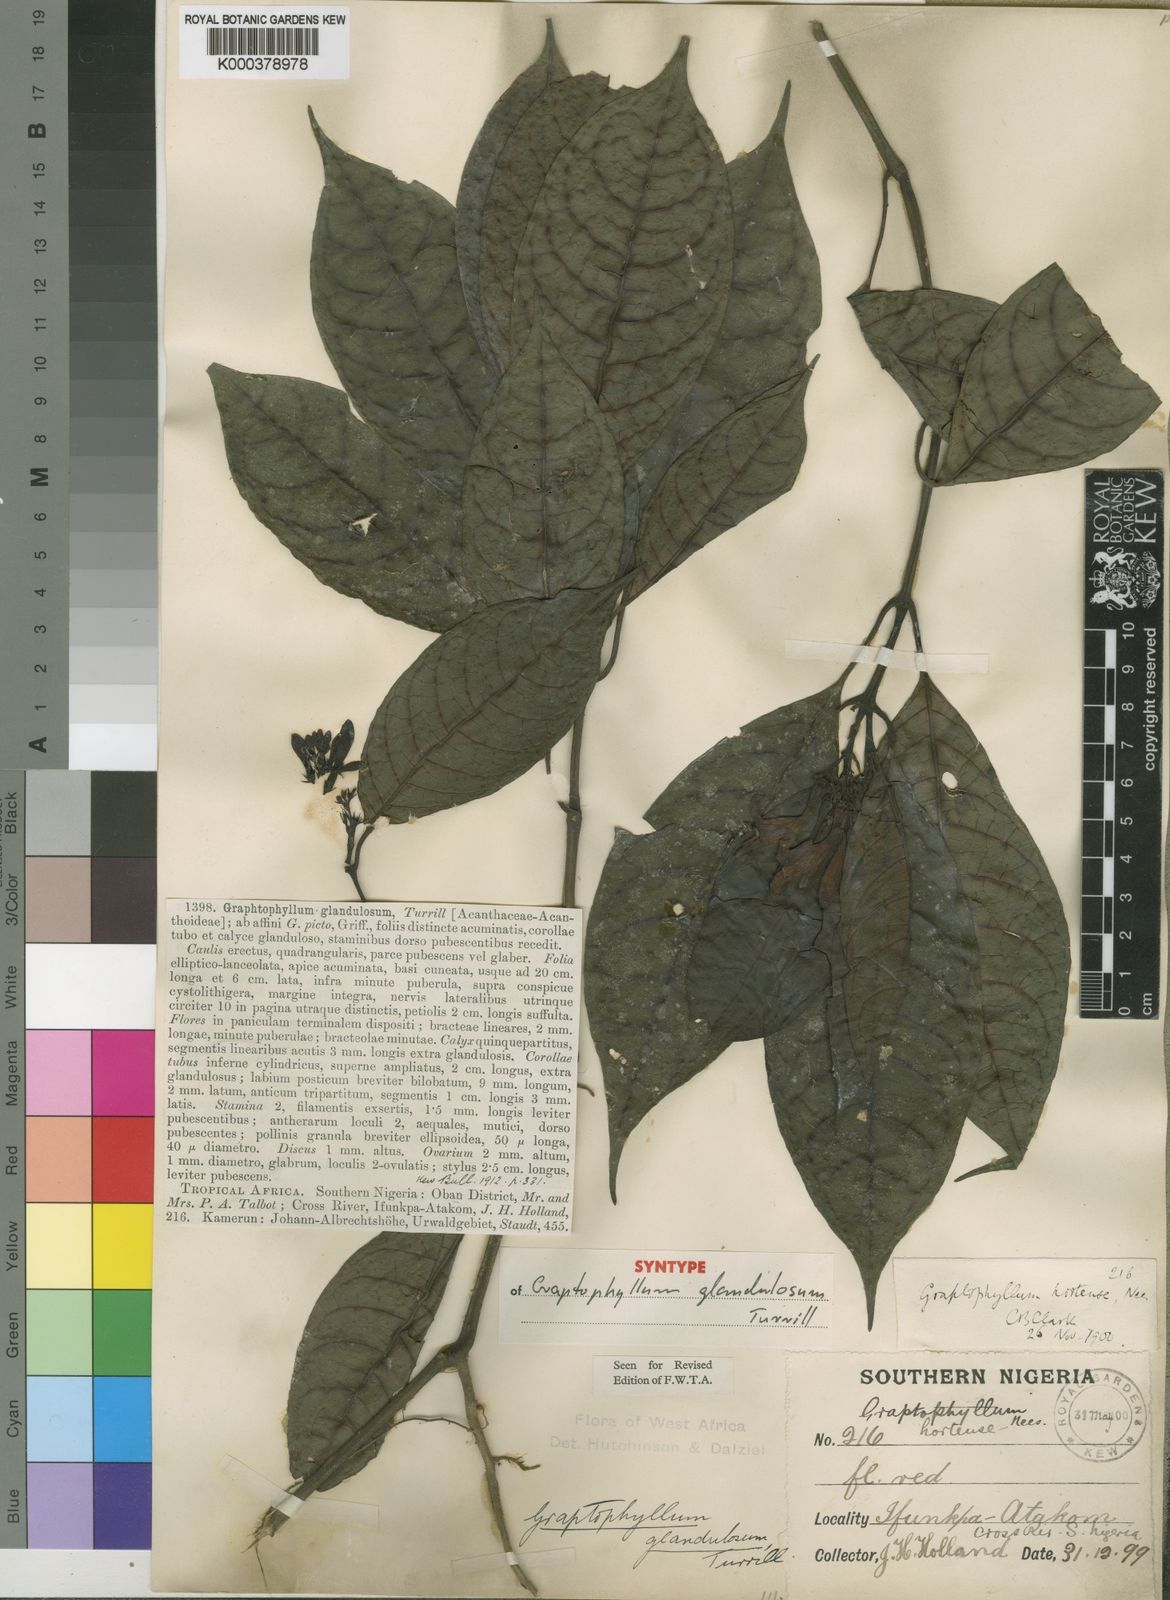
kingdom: Plantae
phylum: Tracheophyta
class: Magnoliopsida
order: Lamiales
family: Acanthaceae
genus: Graptophyllum
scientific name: Graptophyllum glandulosum
